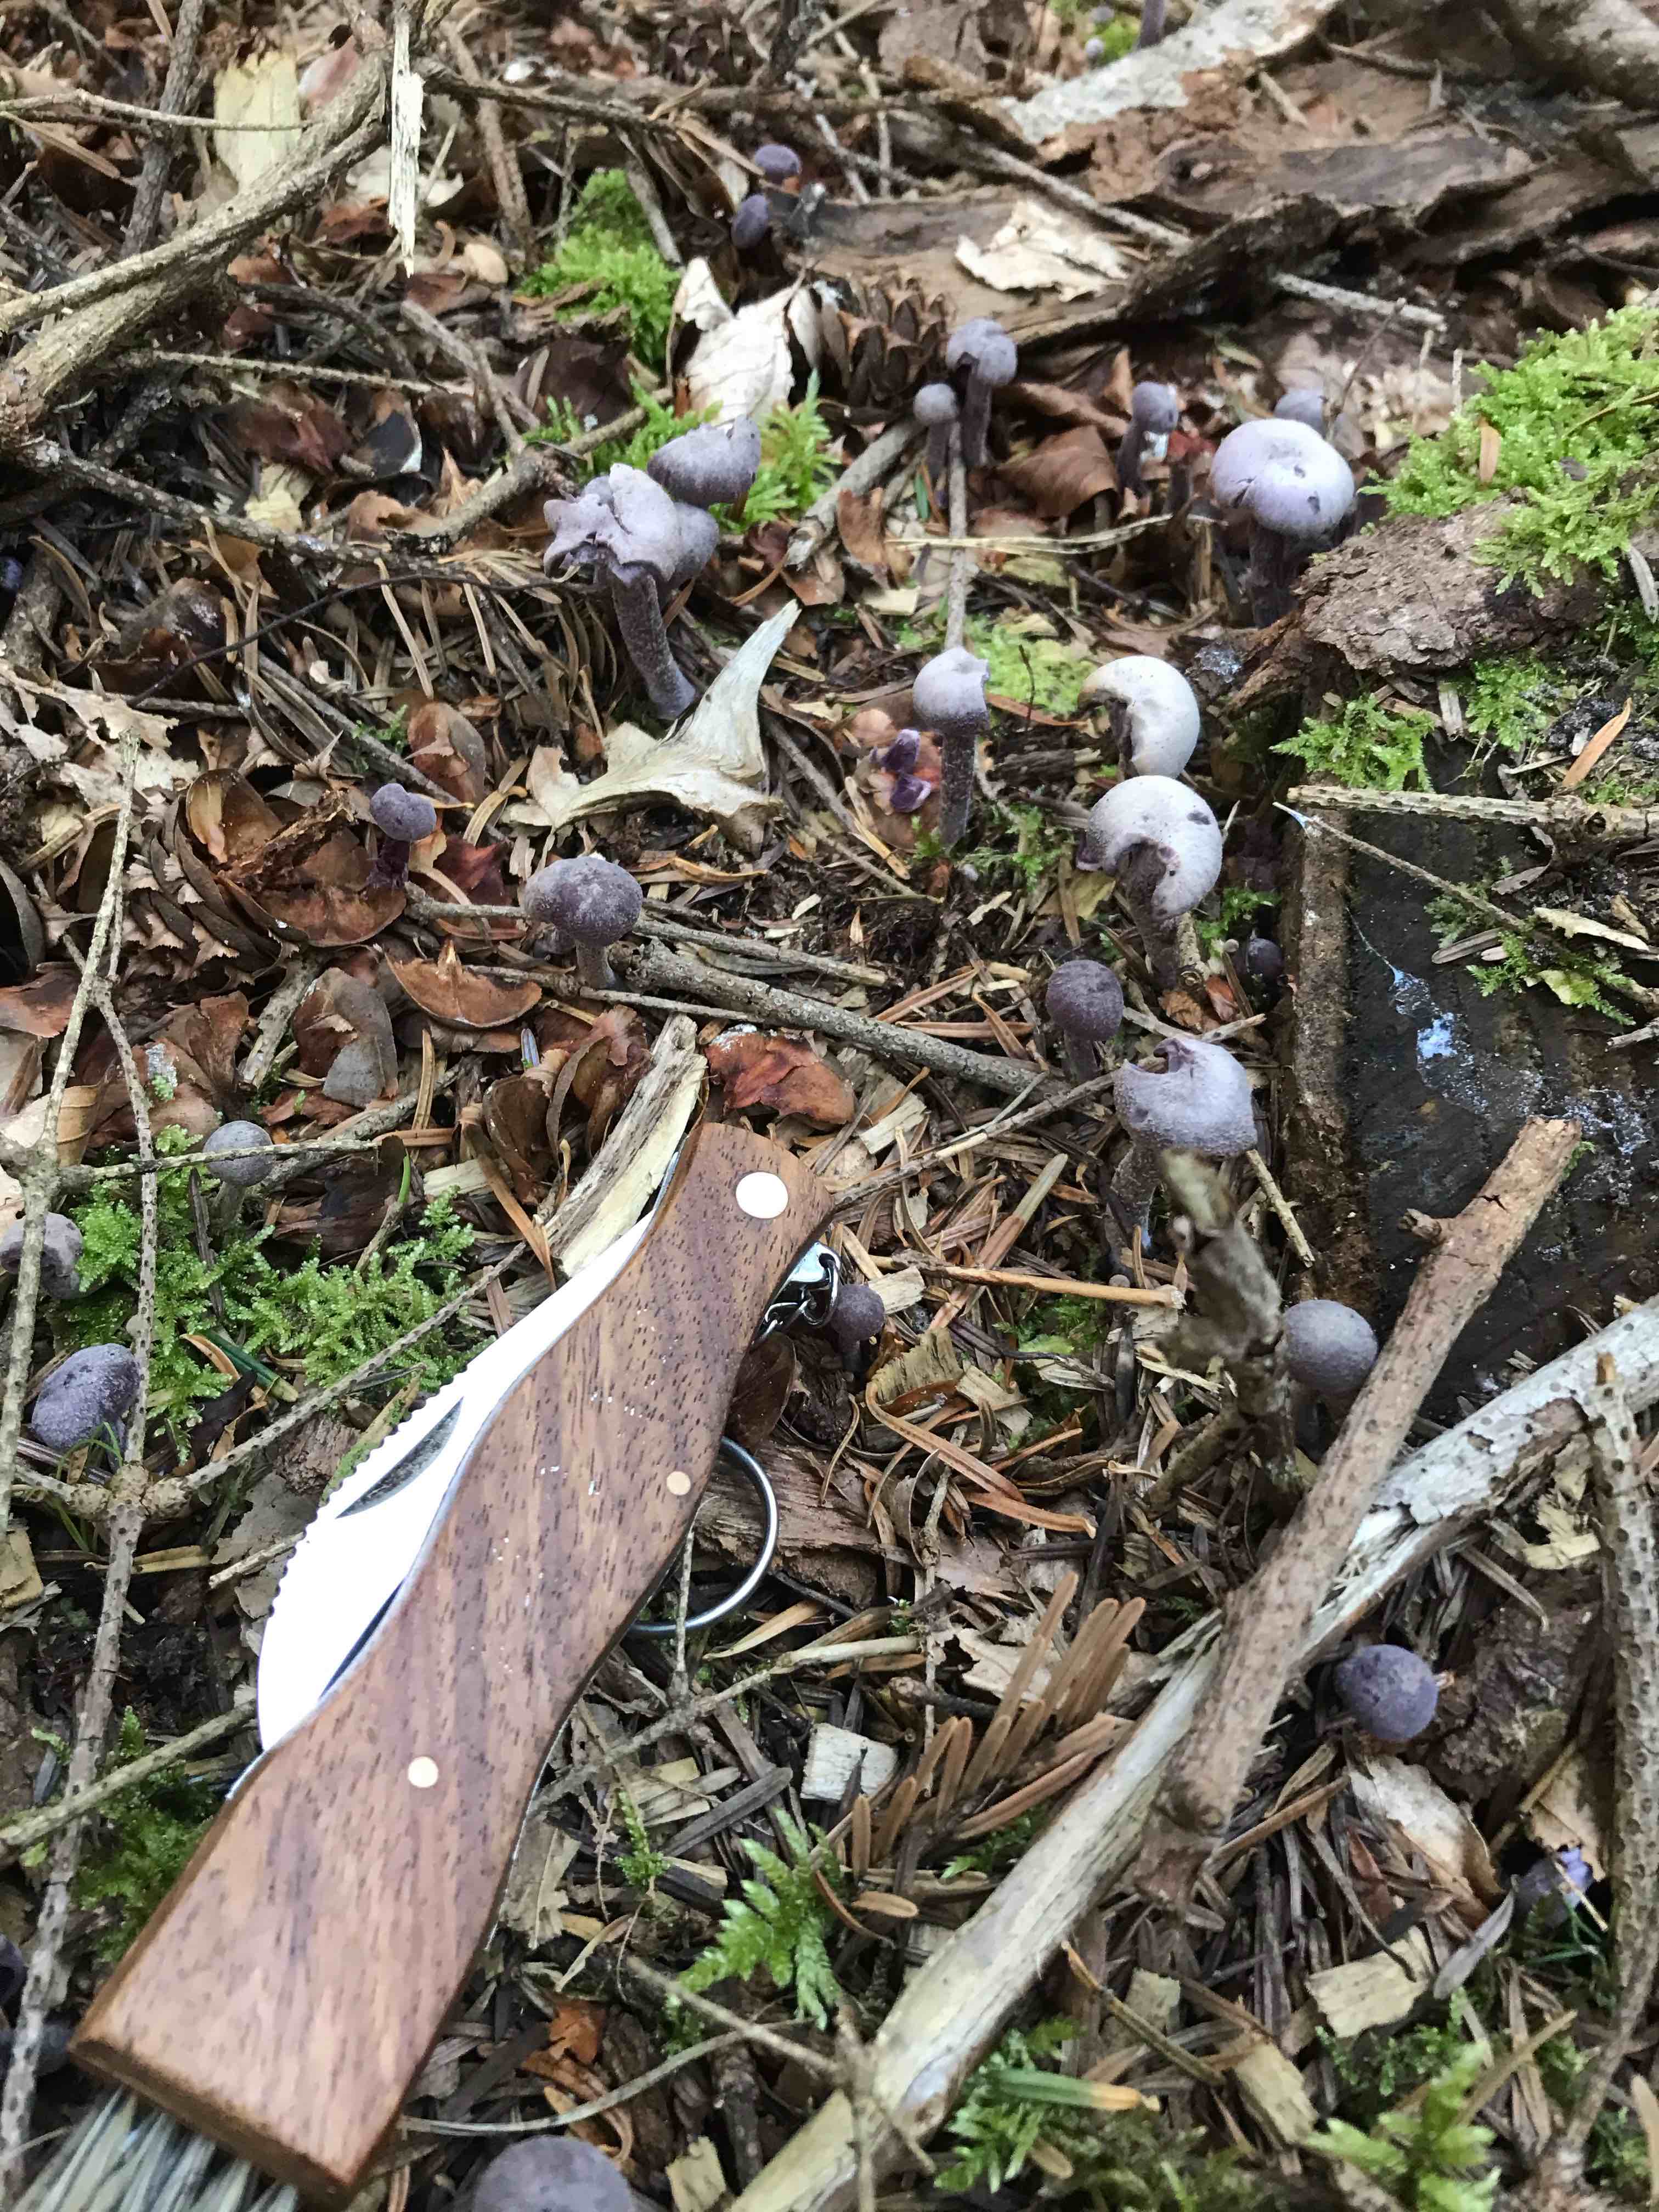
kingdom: Fungi
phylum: Basidiomycota
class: Agaricomycetes
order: Agaricales
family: Hydnangiaceae
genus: Laccaria
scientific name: Laccaria amethystina
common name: violet ametysthat
